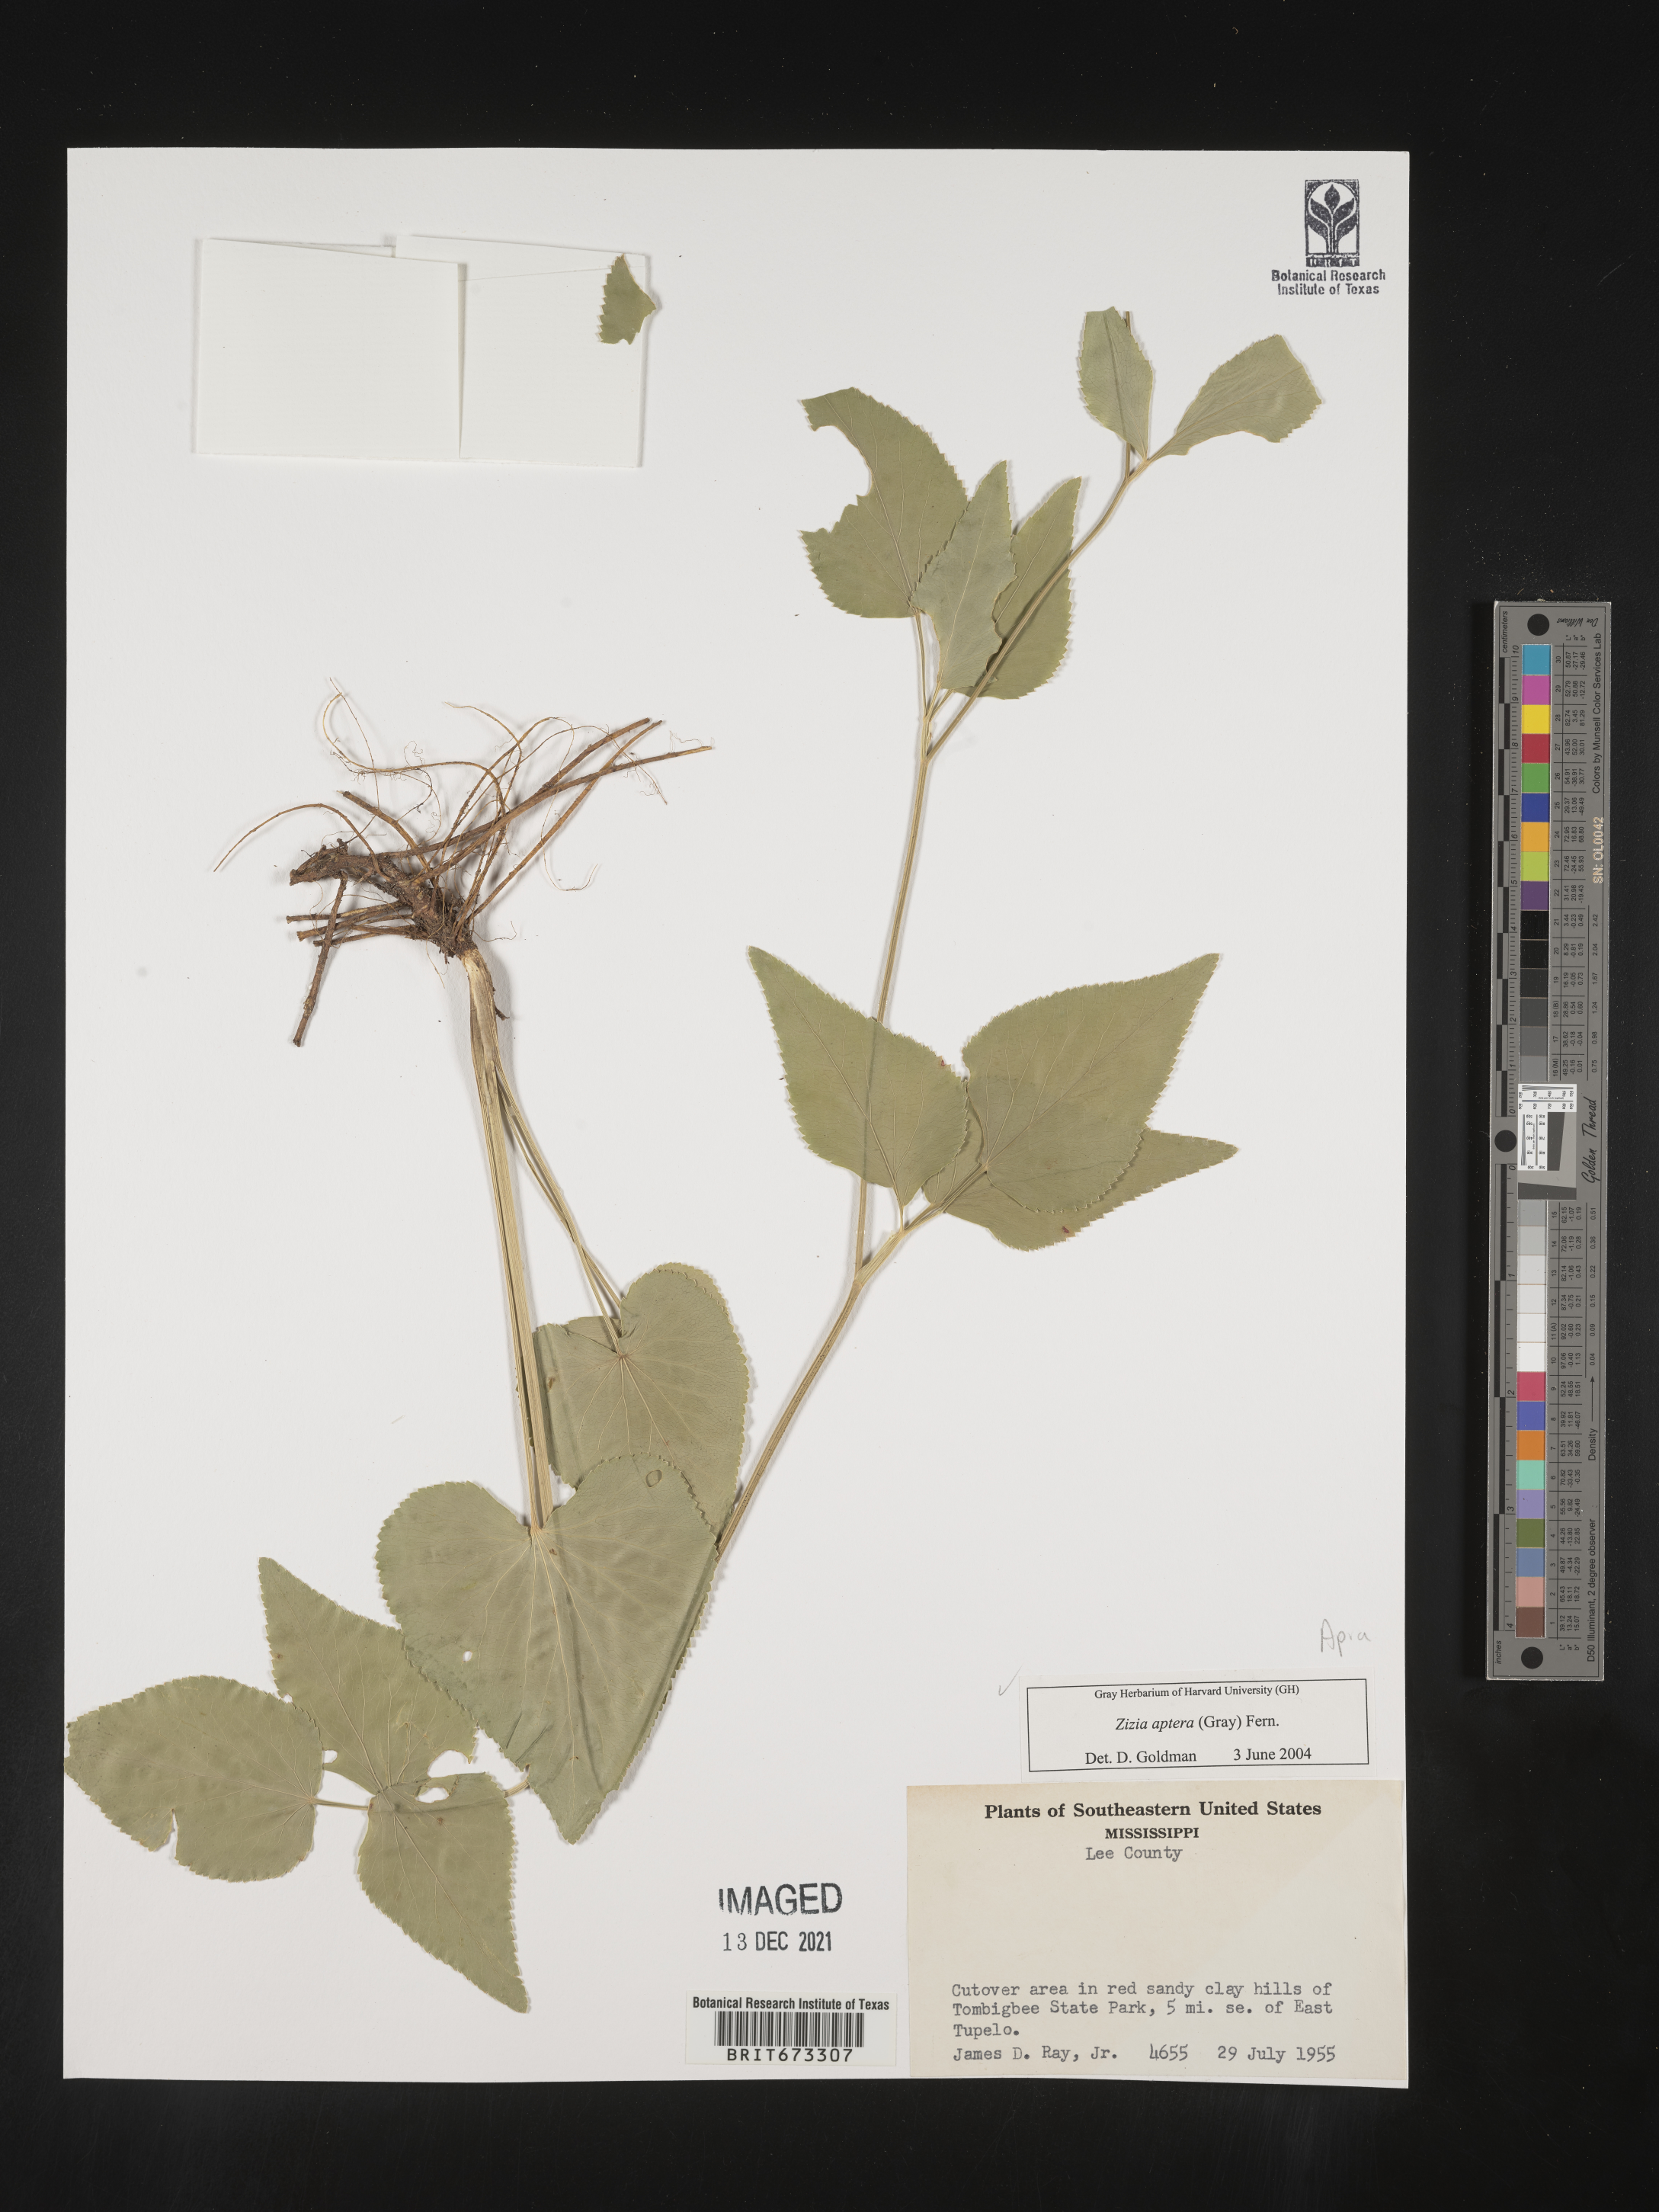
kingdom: Plantae
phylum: Tracheophyta
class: Magnoliopsida
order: Apiales
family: Apiaceae
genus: Zizia
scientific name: Zizia aptera
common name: Heart-leaved alexanders
